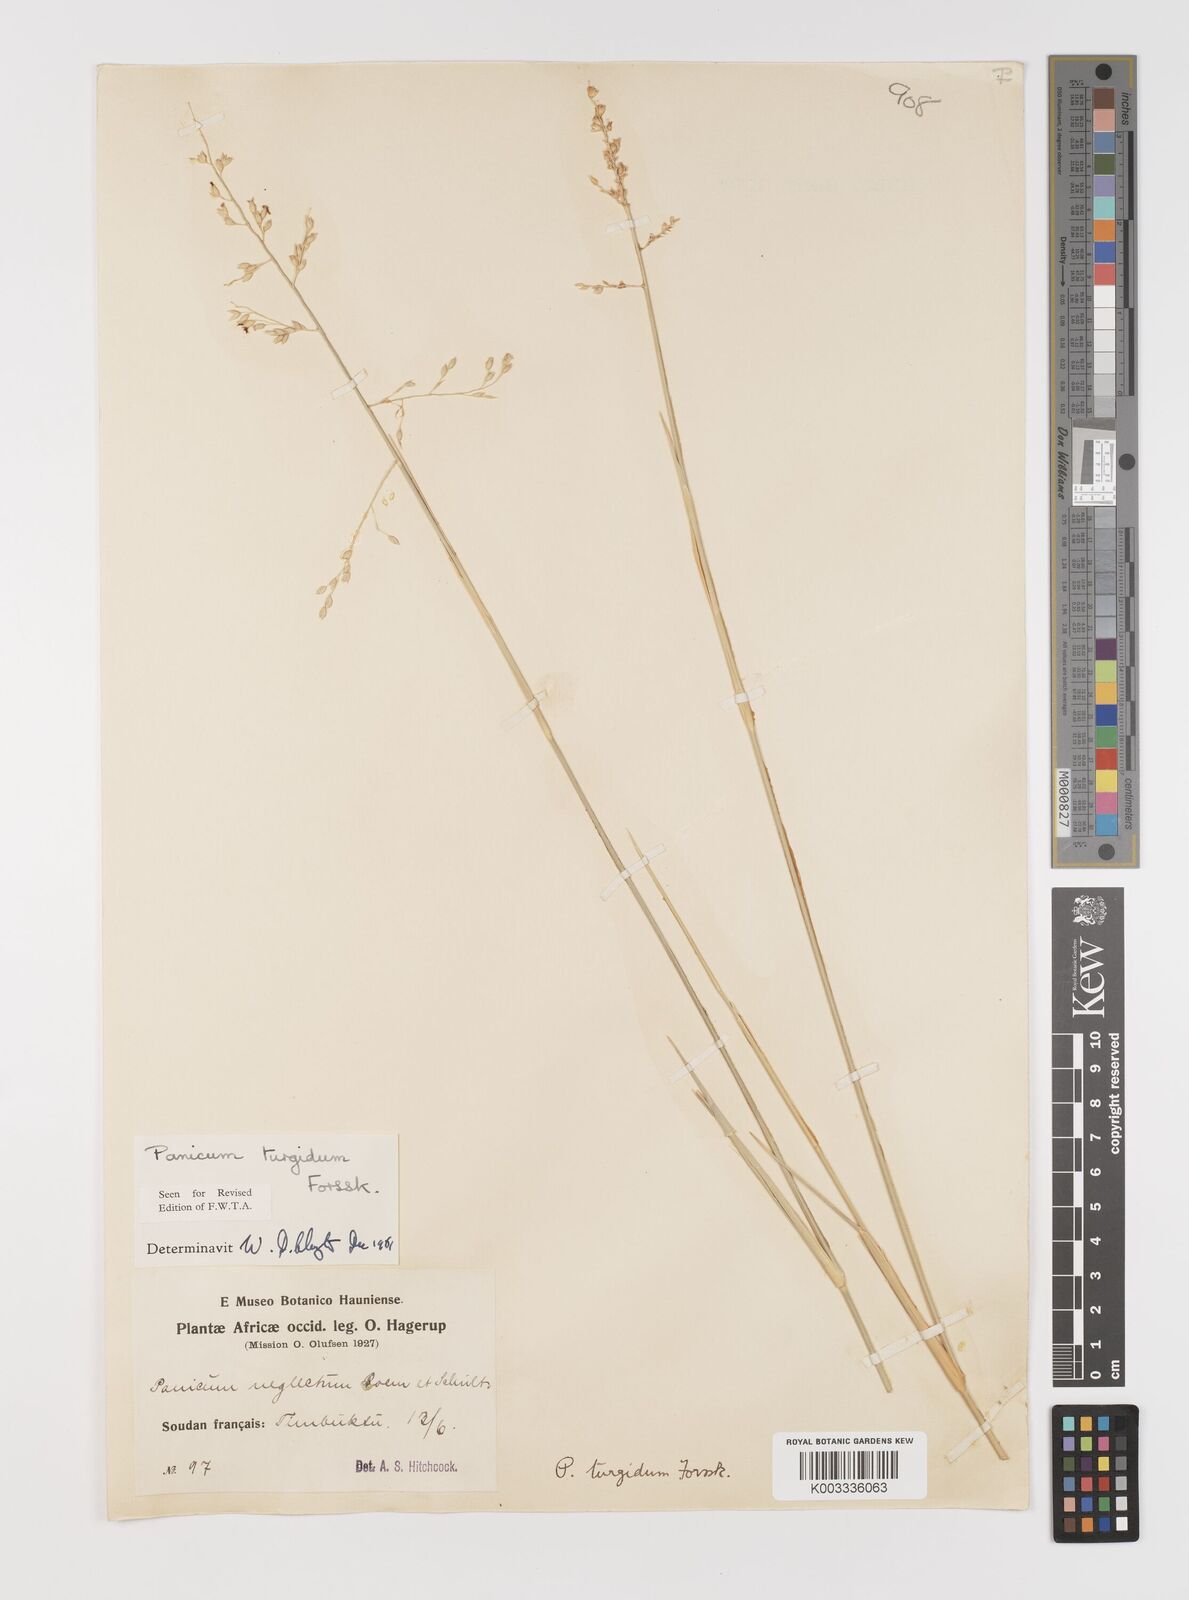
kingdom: Plantae
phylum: Tracheophyta
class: Liliopsida
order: Poales
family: Poaceae
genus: Panicum
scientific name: Panicum turgidum
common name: Desert grass
